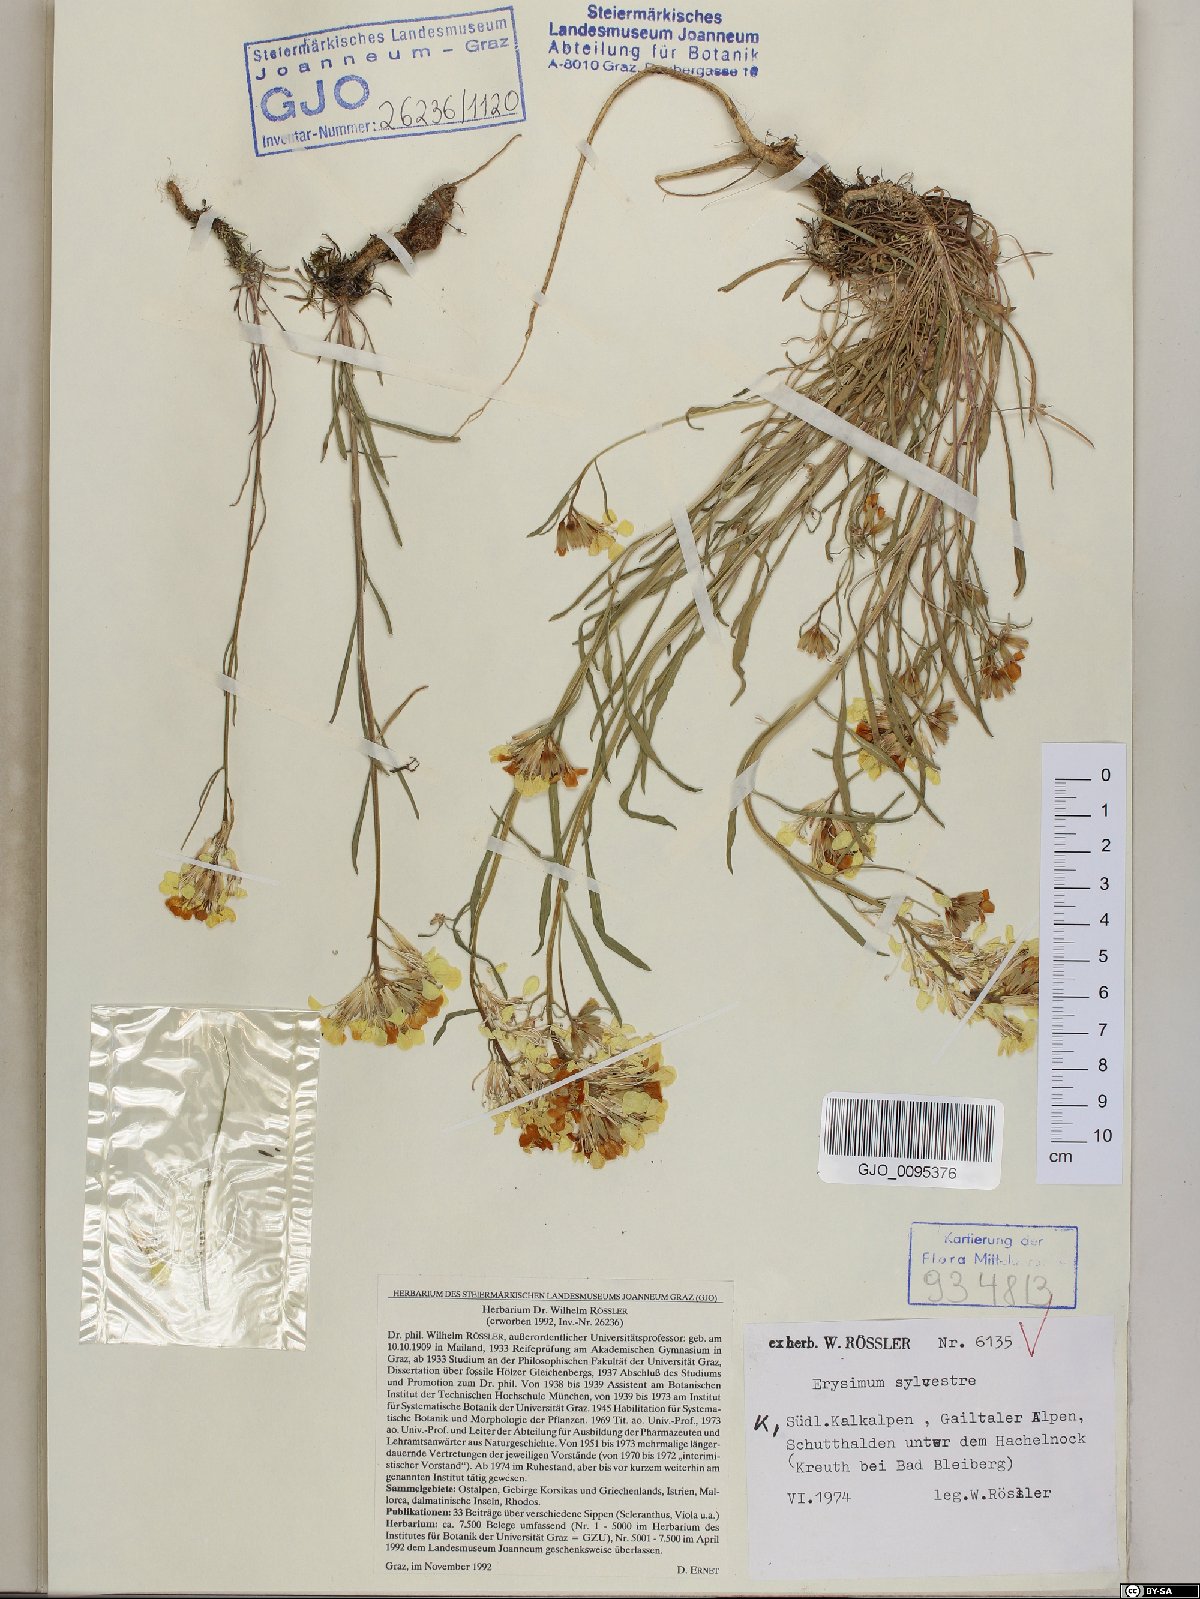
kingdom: Plantae
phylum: Tracheophyta
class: Magnoliopsida
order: Brassicales
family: Brassicaceae
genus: Erysimum
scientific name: Erysimum sylvestre
